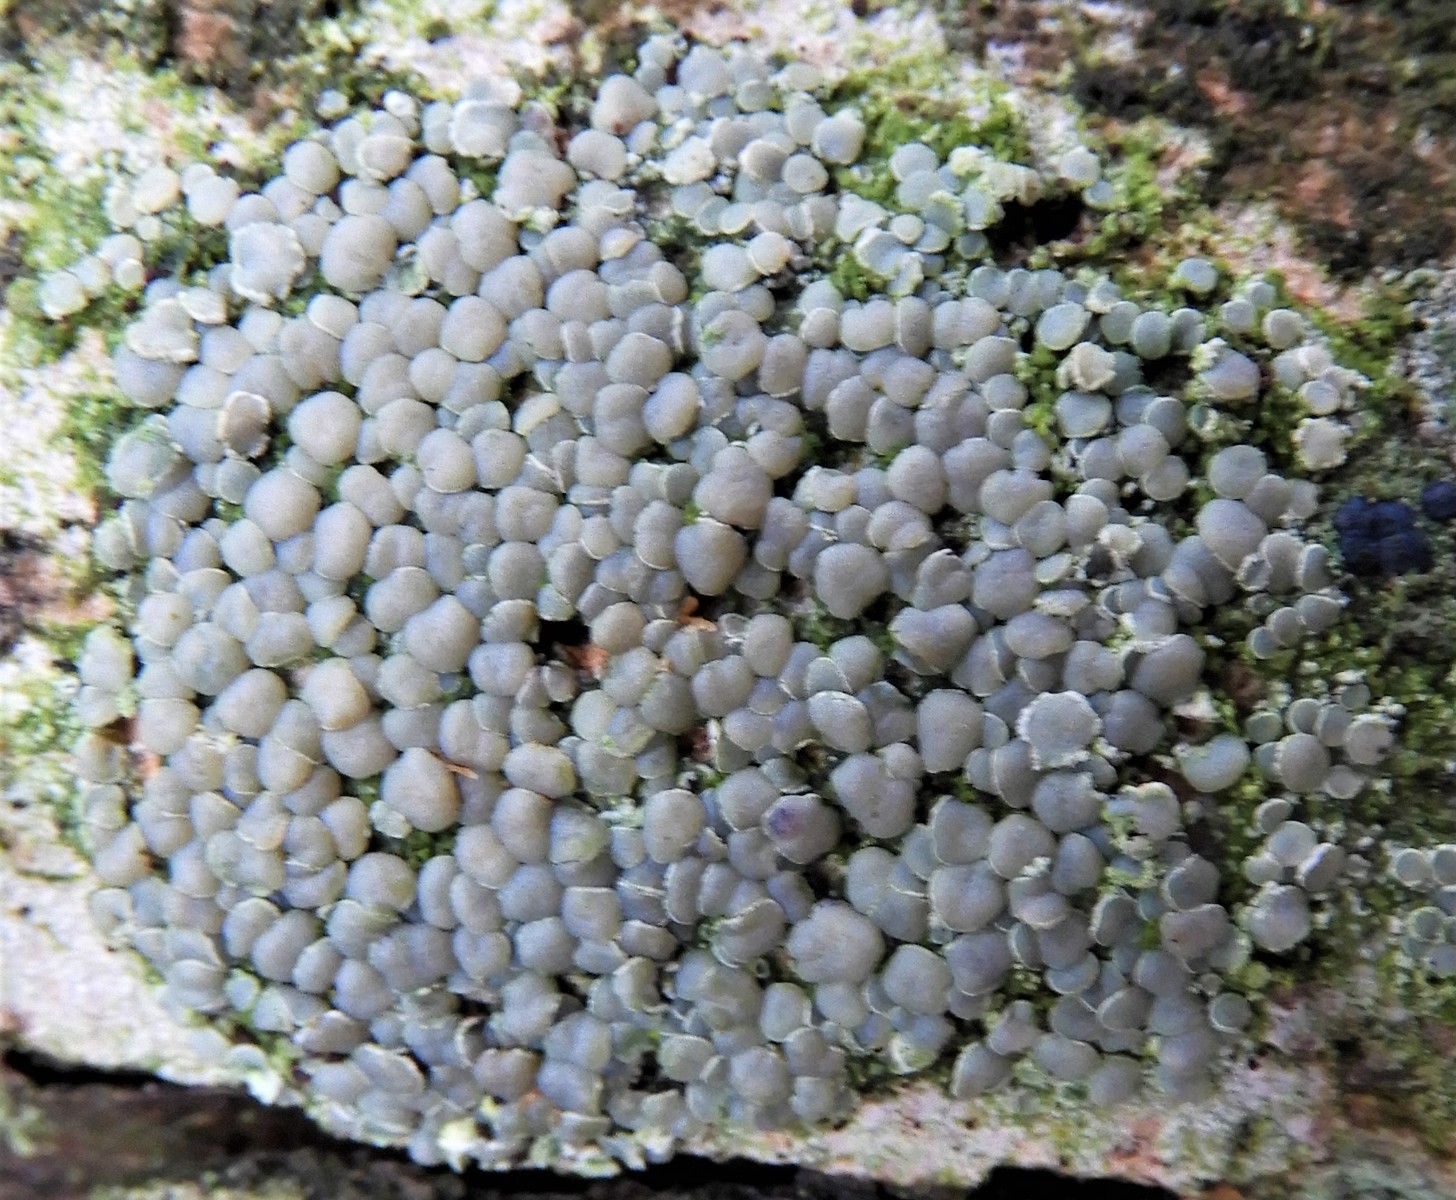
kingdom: Fungi
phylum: Ascomycota
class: Lecanoromycetes
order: Lecanorales
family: Lecanoraceae
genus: Glaucomaria
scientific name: Glaucomaria carpinea
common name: hviddugget kantskivelav
